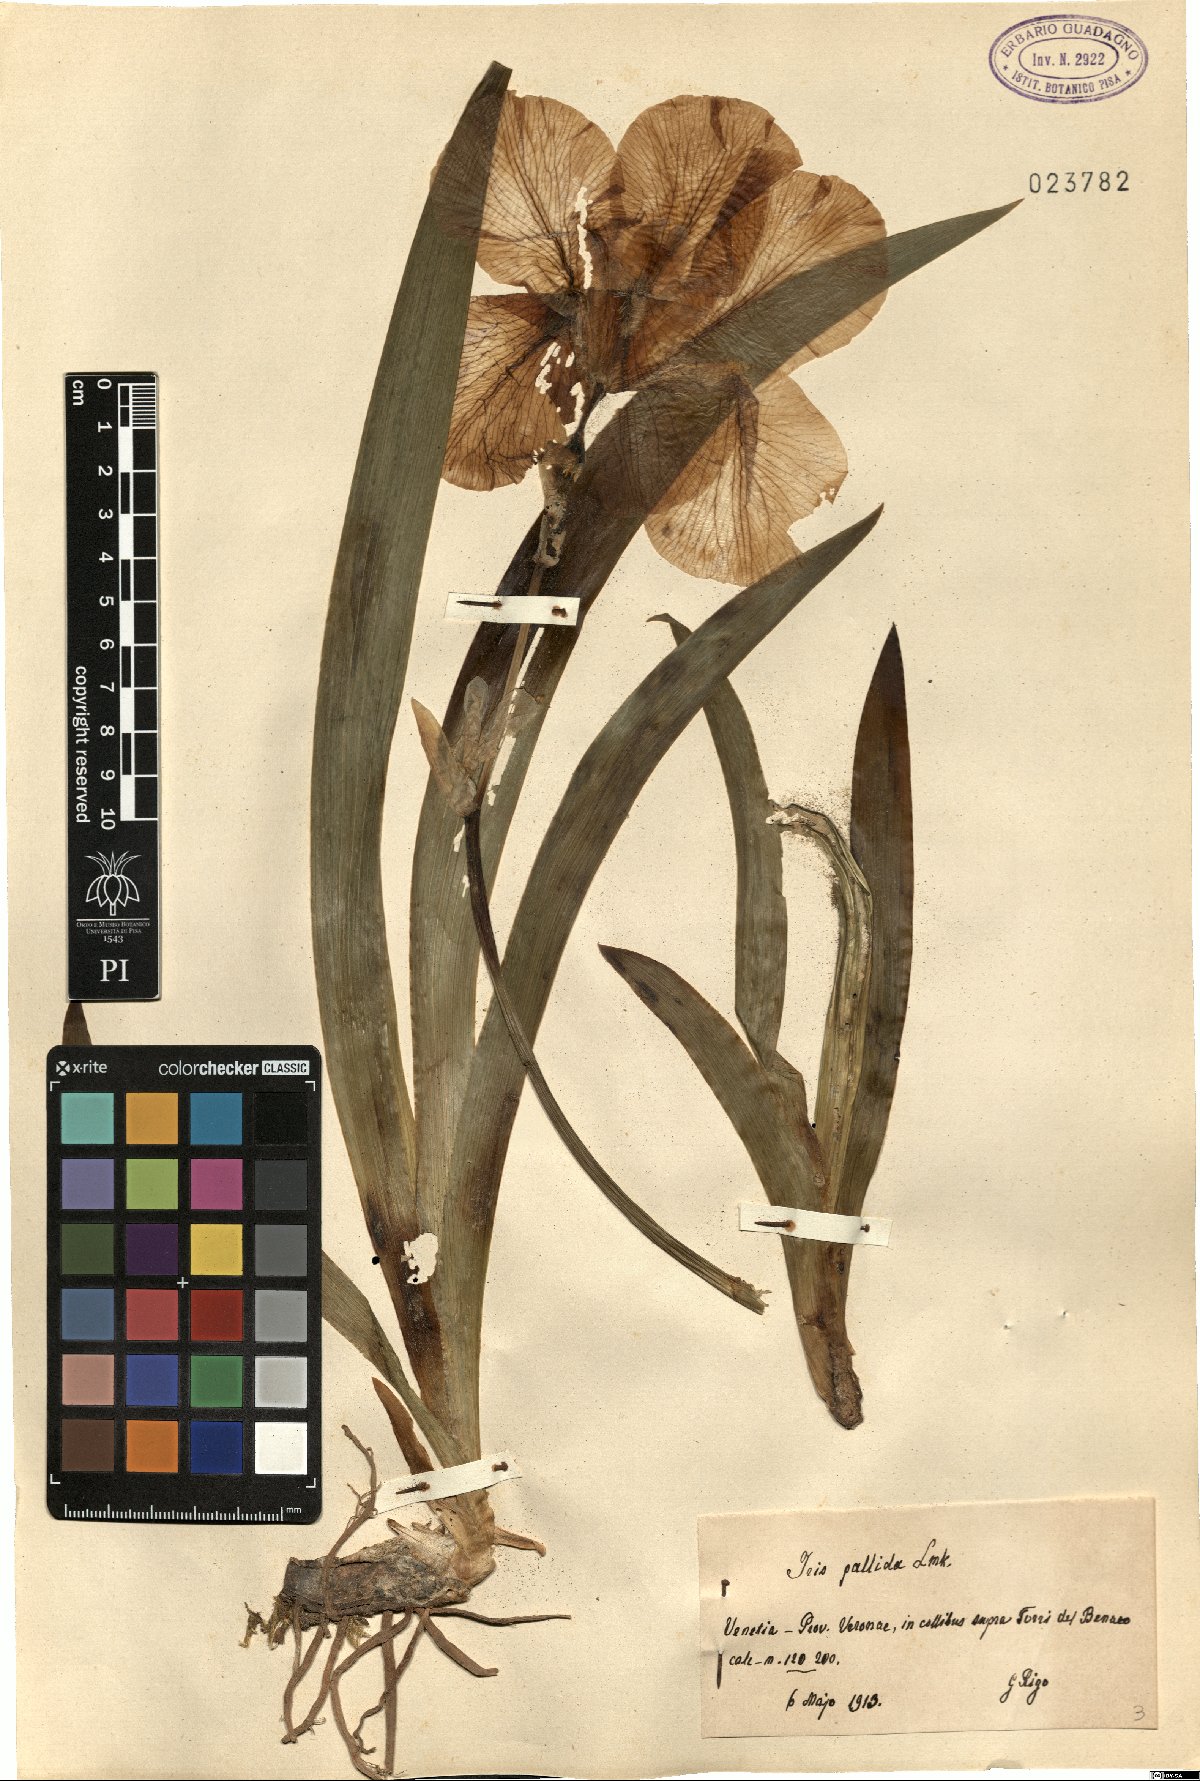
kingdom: Plantae
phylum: Tracheophyta
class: Liliopsida
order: Asparagales
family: Iridaceae
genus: Iris
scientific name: Iris pallida
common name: Sweet iris
